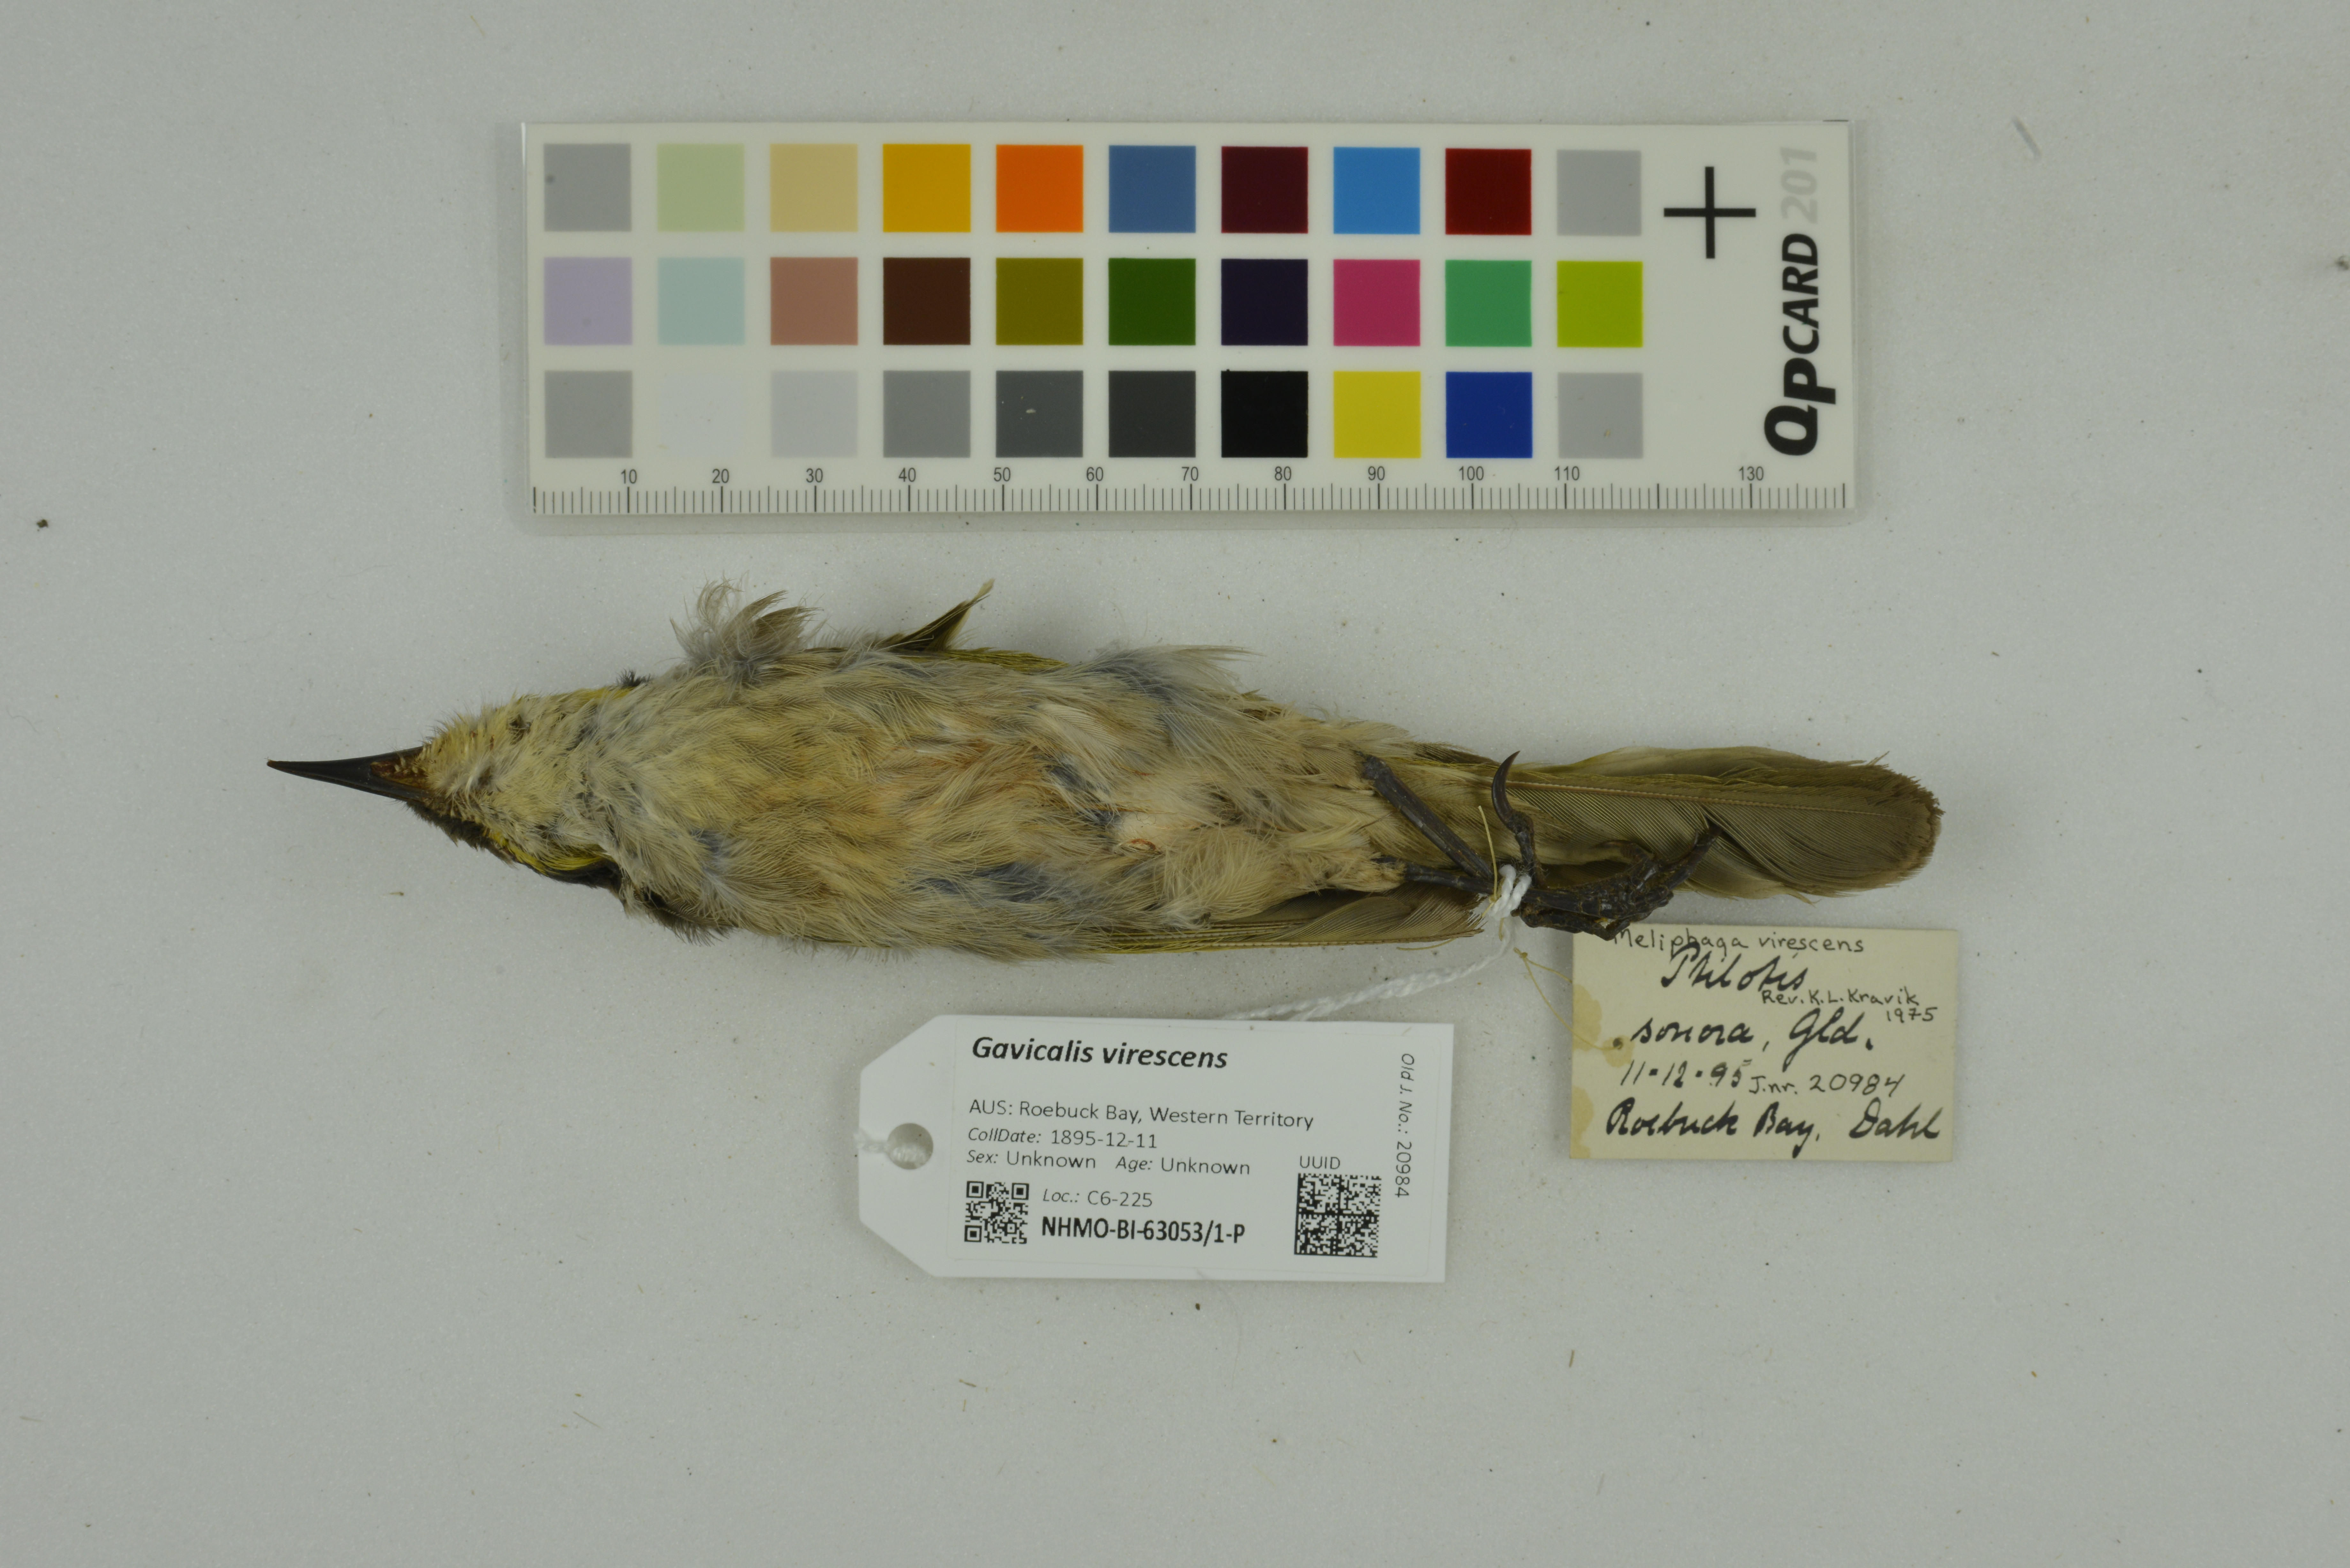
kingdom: Animalia
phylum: Chordata
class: Aves
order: Passeriformes
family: Meliphagidae
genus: Gavicalis
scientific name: Gavicalis virescens
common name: Singing honeyeater
